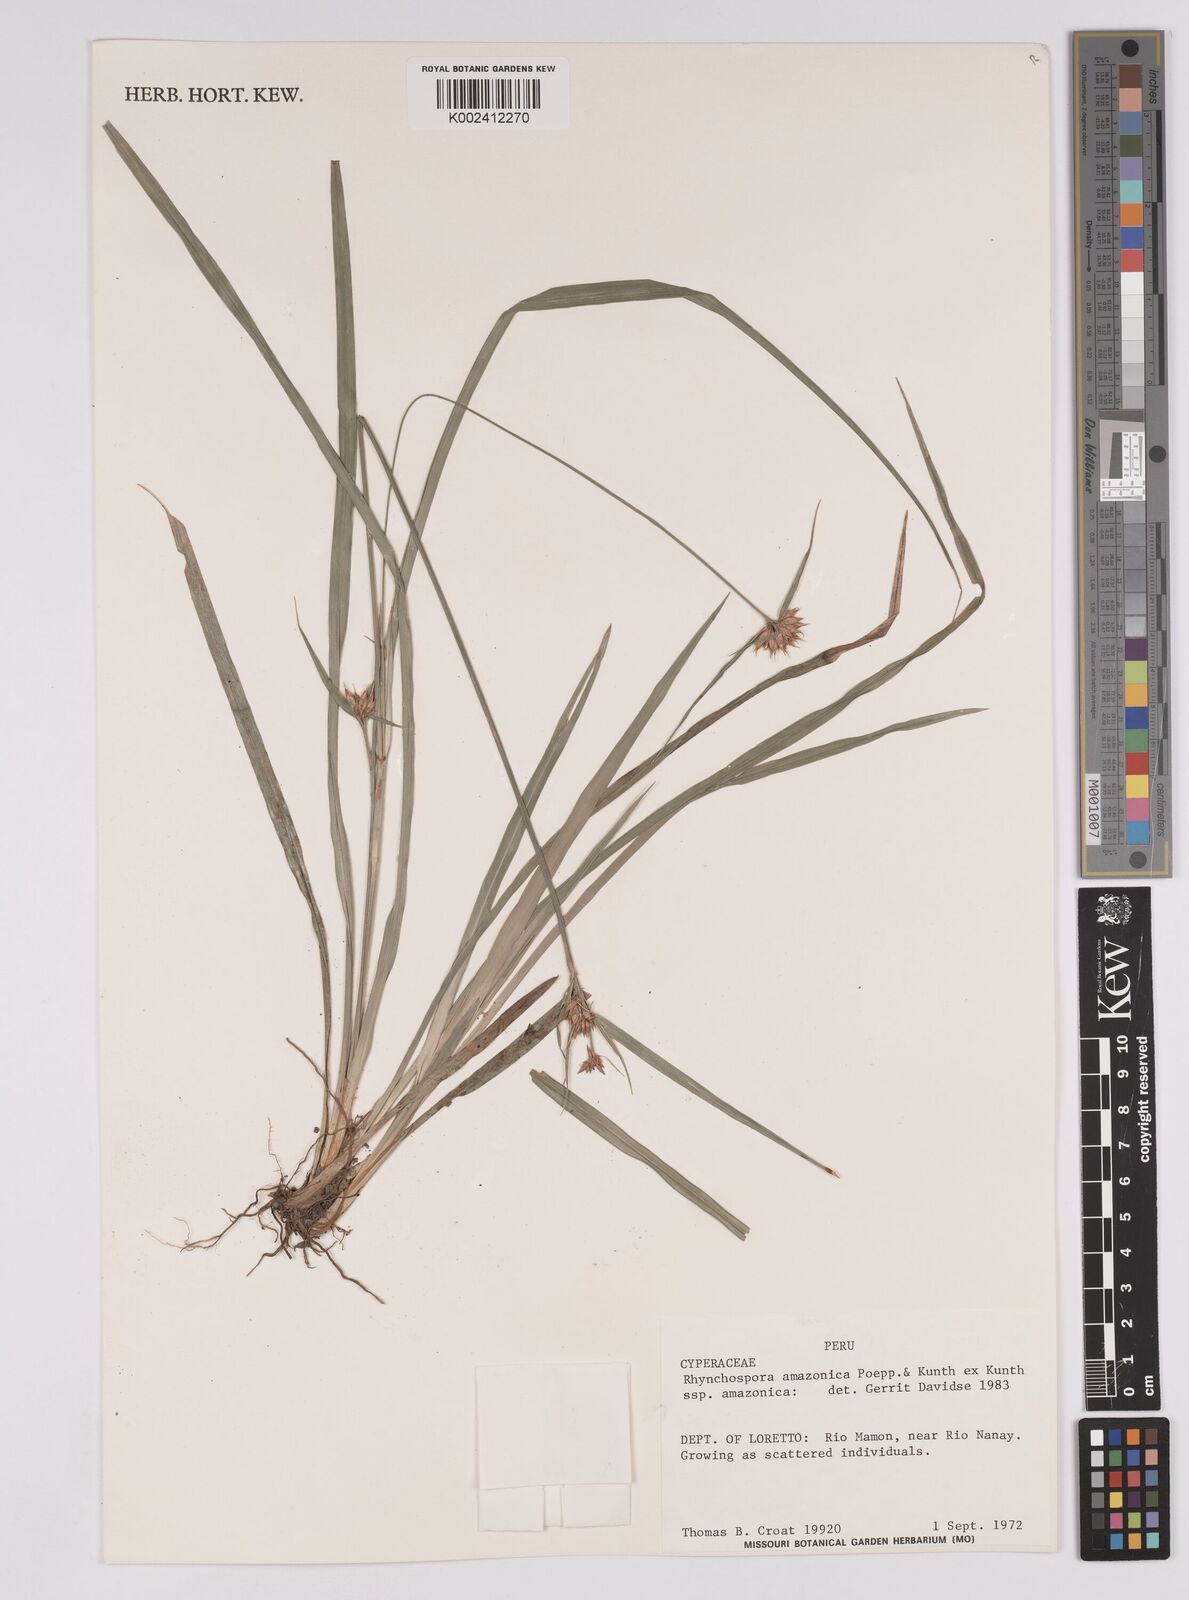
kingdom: Plantae
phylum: Tracheophyta
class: Liliopsida
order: Poales
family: Cyperaceae
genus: Rhynchospora
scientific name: Rhynchospora amazonica
